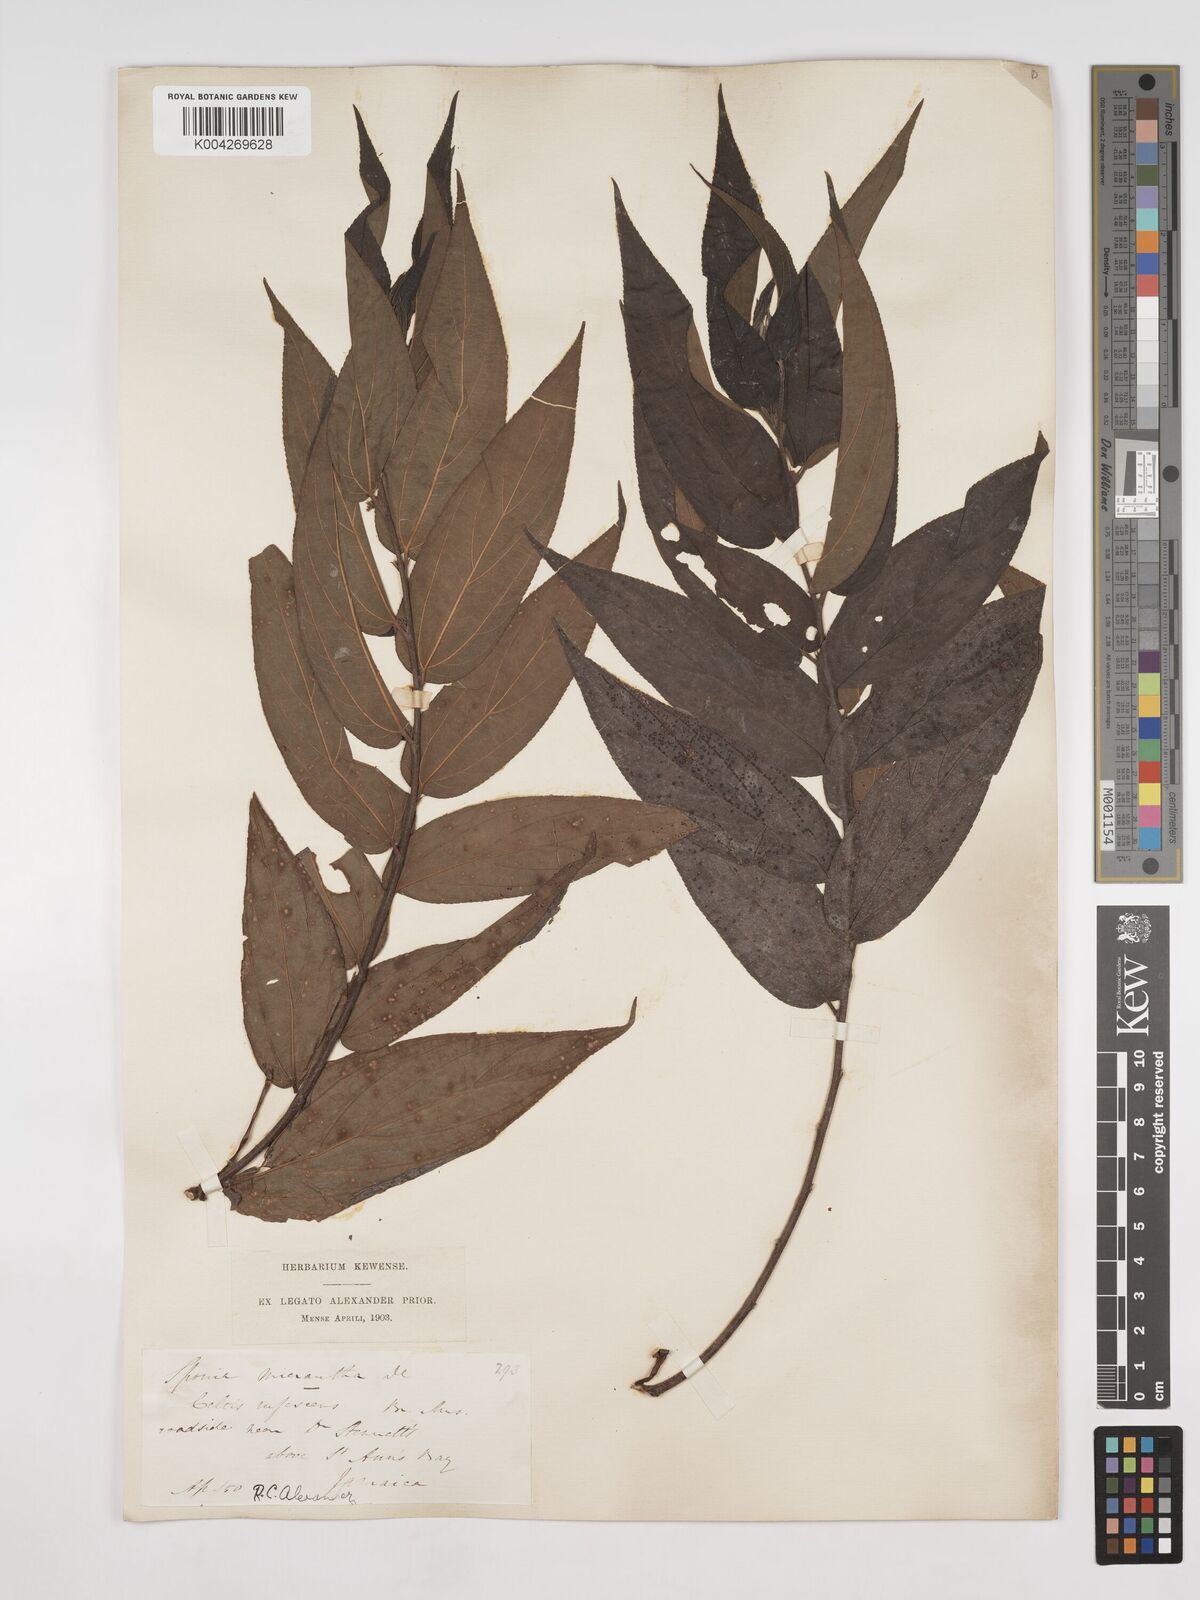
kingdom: Plantae
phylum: Tracheophyta
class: Magnoliopsida
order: Rosales
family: Cannabaceae
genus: Trema
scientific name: Trema micranthum
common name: Jamaican nettletree
